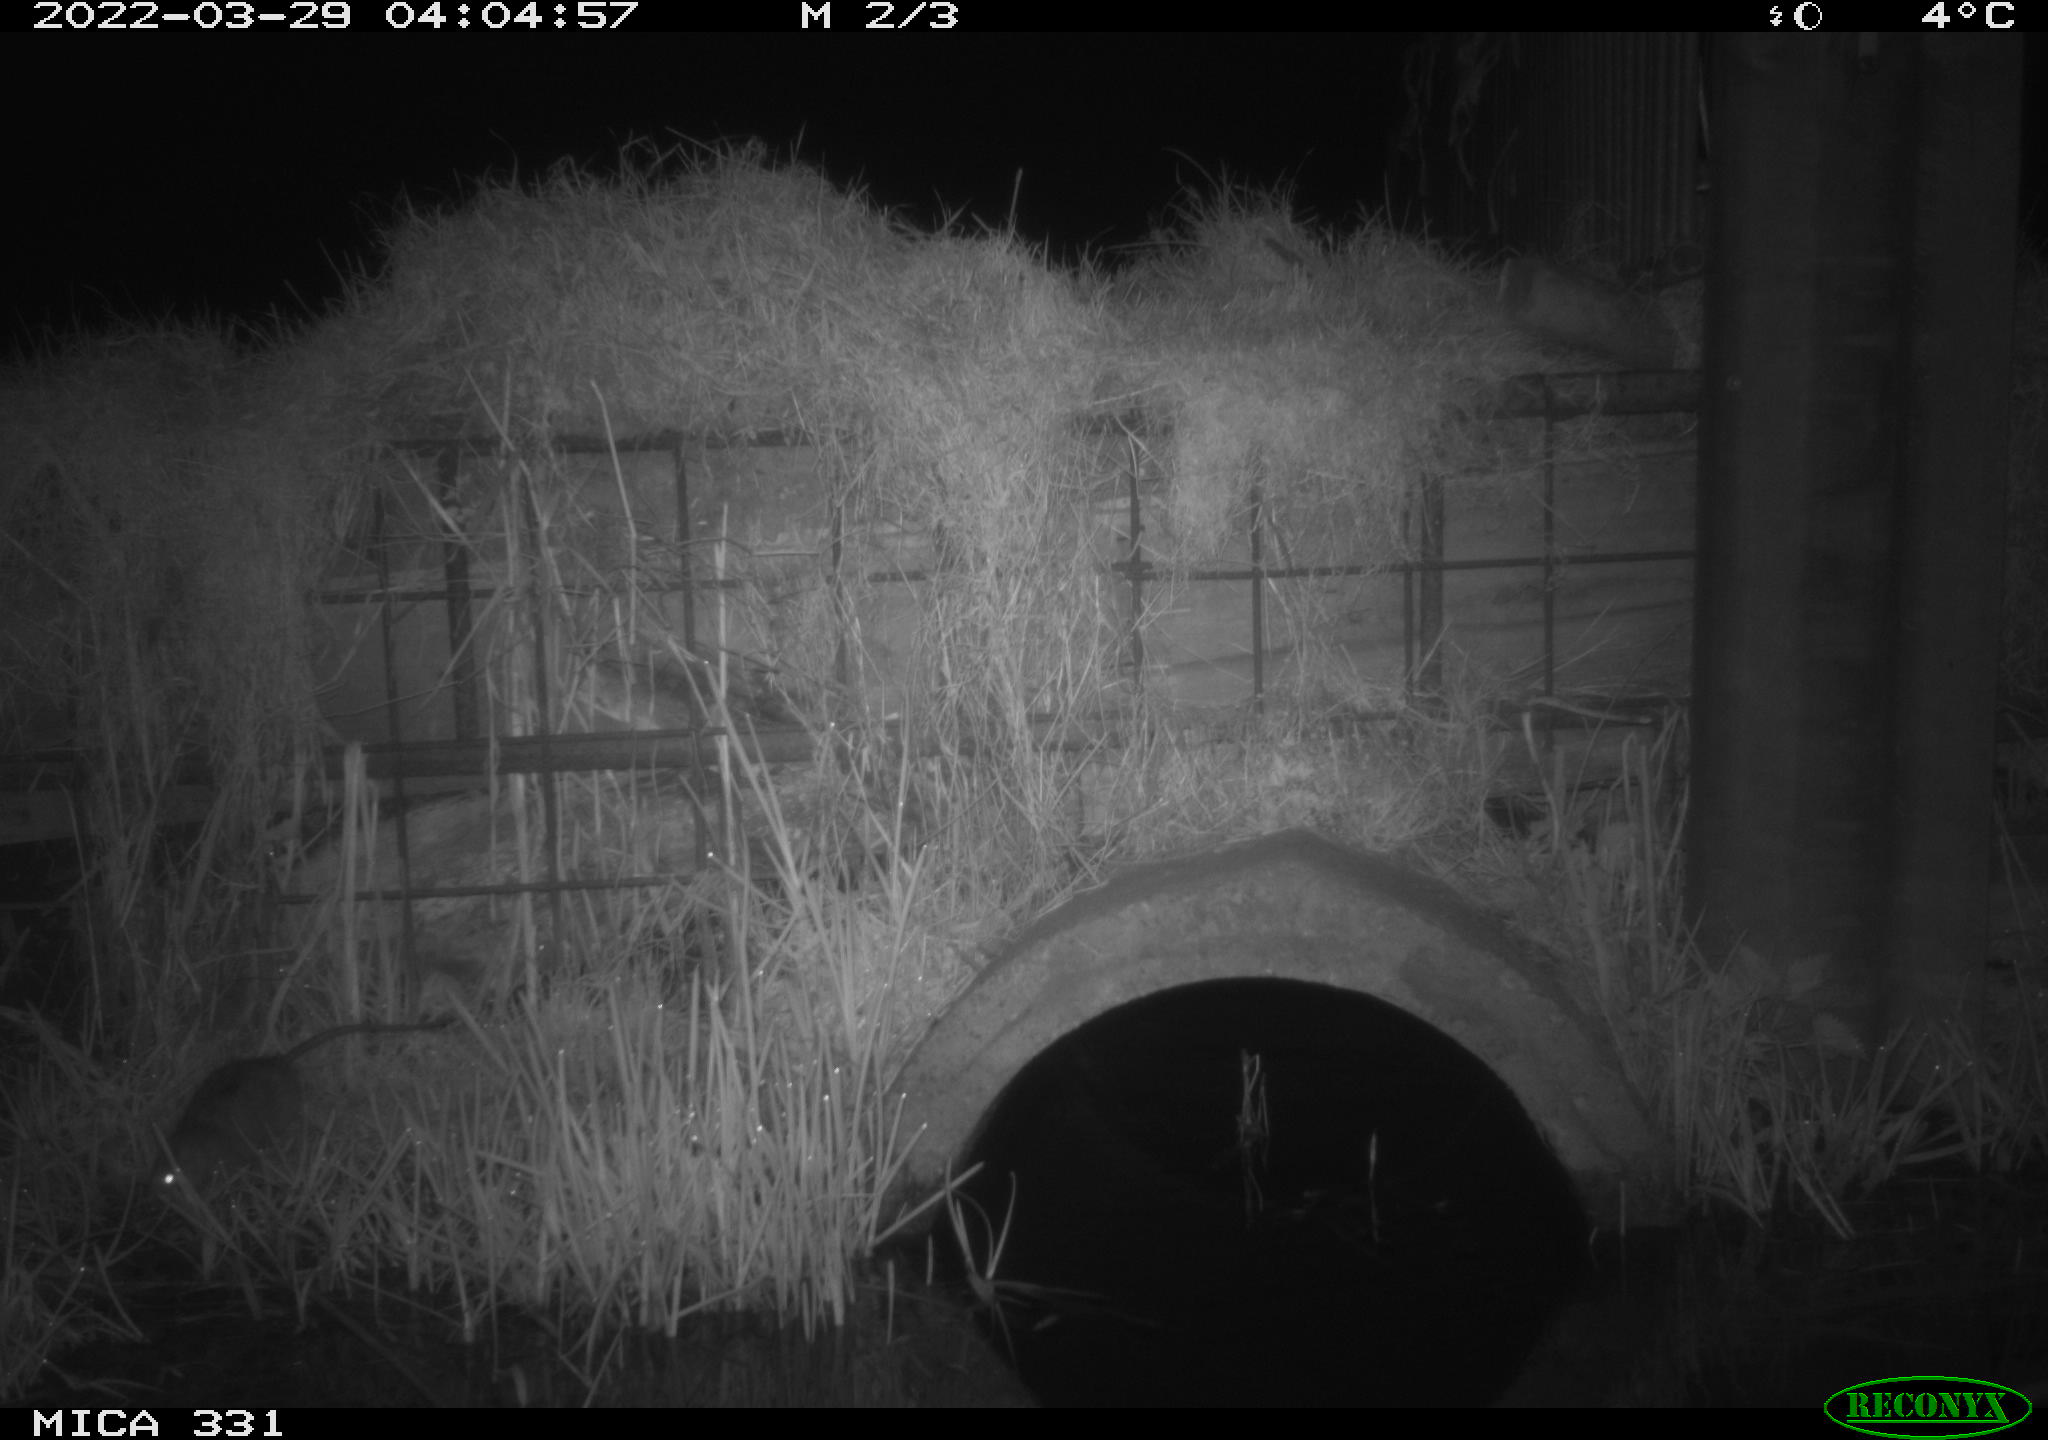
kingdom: Animalia
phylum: Chordata
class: Mammalia
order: Rodentia
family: Muridae
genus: Rattus
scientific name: Rattus norvegicus
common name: Brown rat
